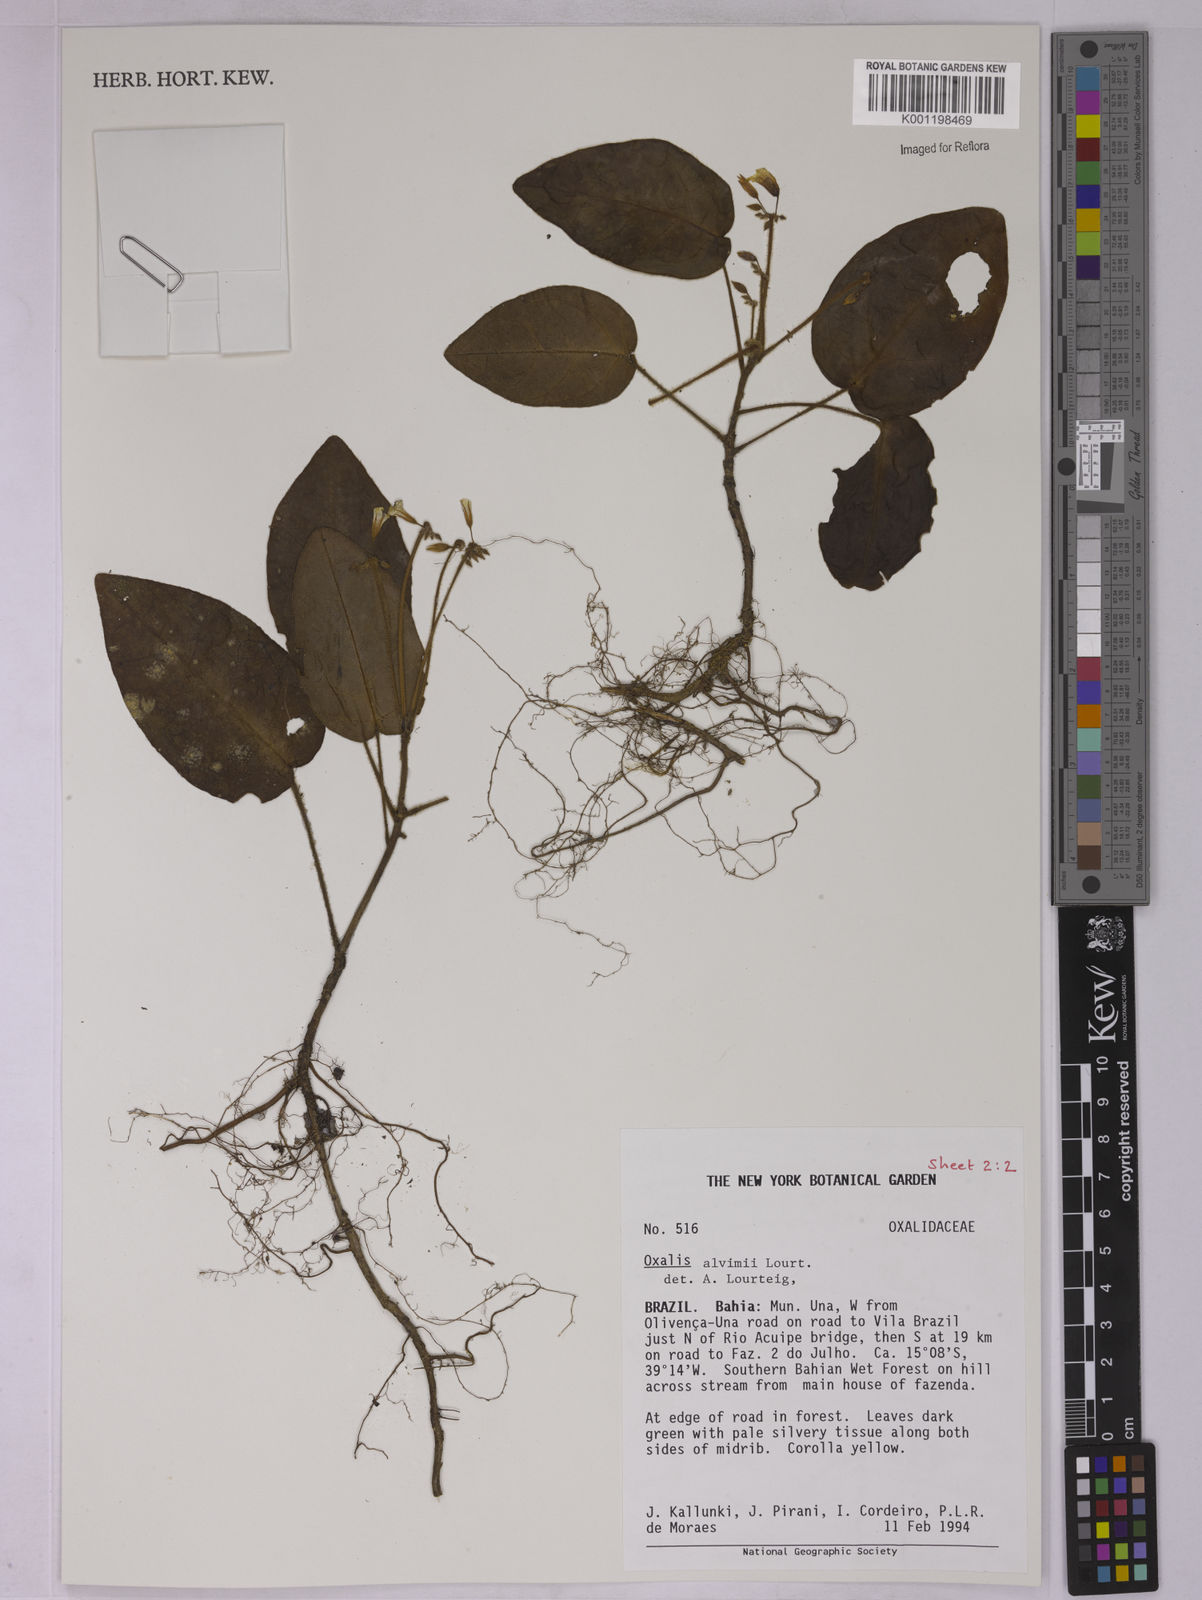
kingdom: Plantae
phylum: Tracheophyta
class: Magnoliopsida
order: Oxalidales
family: Oxalidaceae
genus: Oxalis
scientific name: Oxalis alvimii
